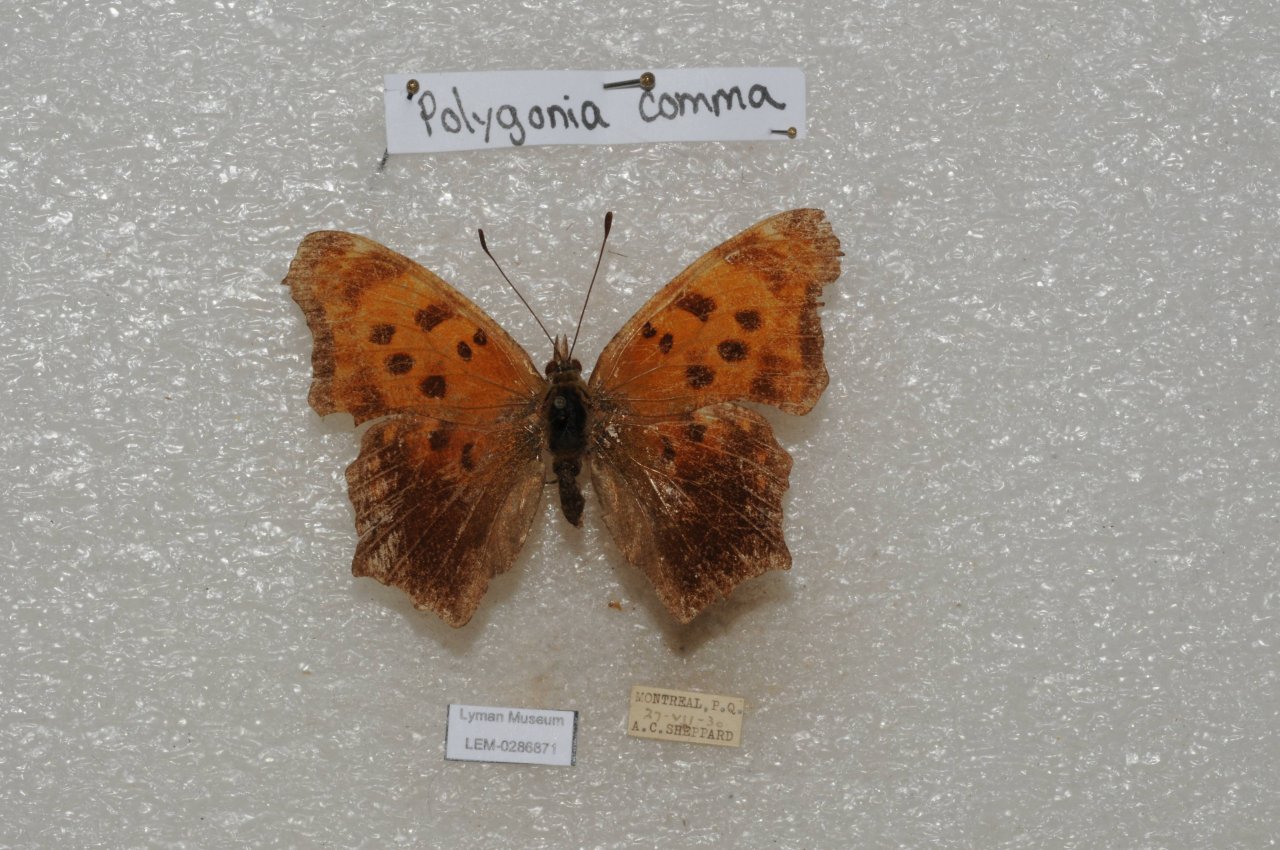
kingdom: Animalia
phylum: Arthropoda
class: Insecta
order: Lepidoptera
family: Nymphalidae
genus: Polygonia
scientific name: Polygonia comma
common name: Eastern Comma
